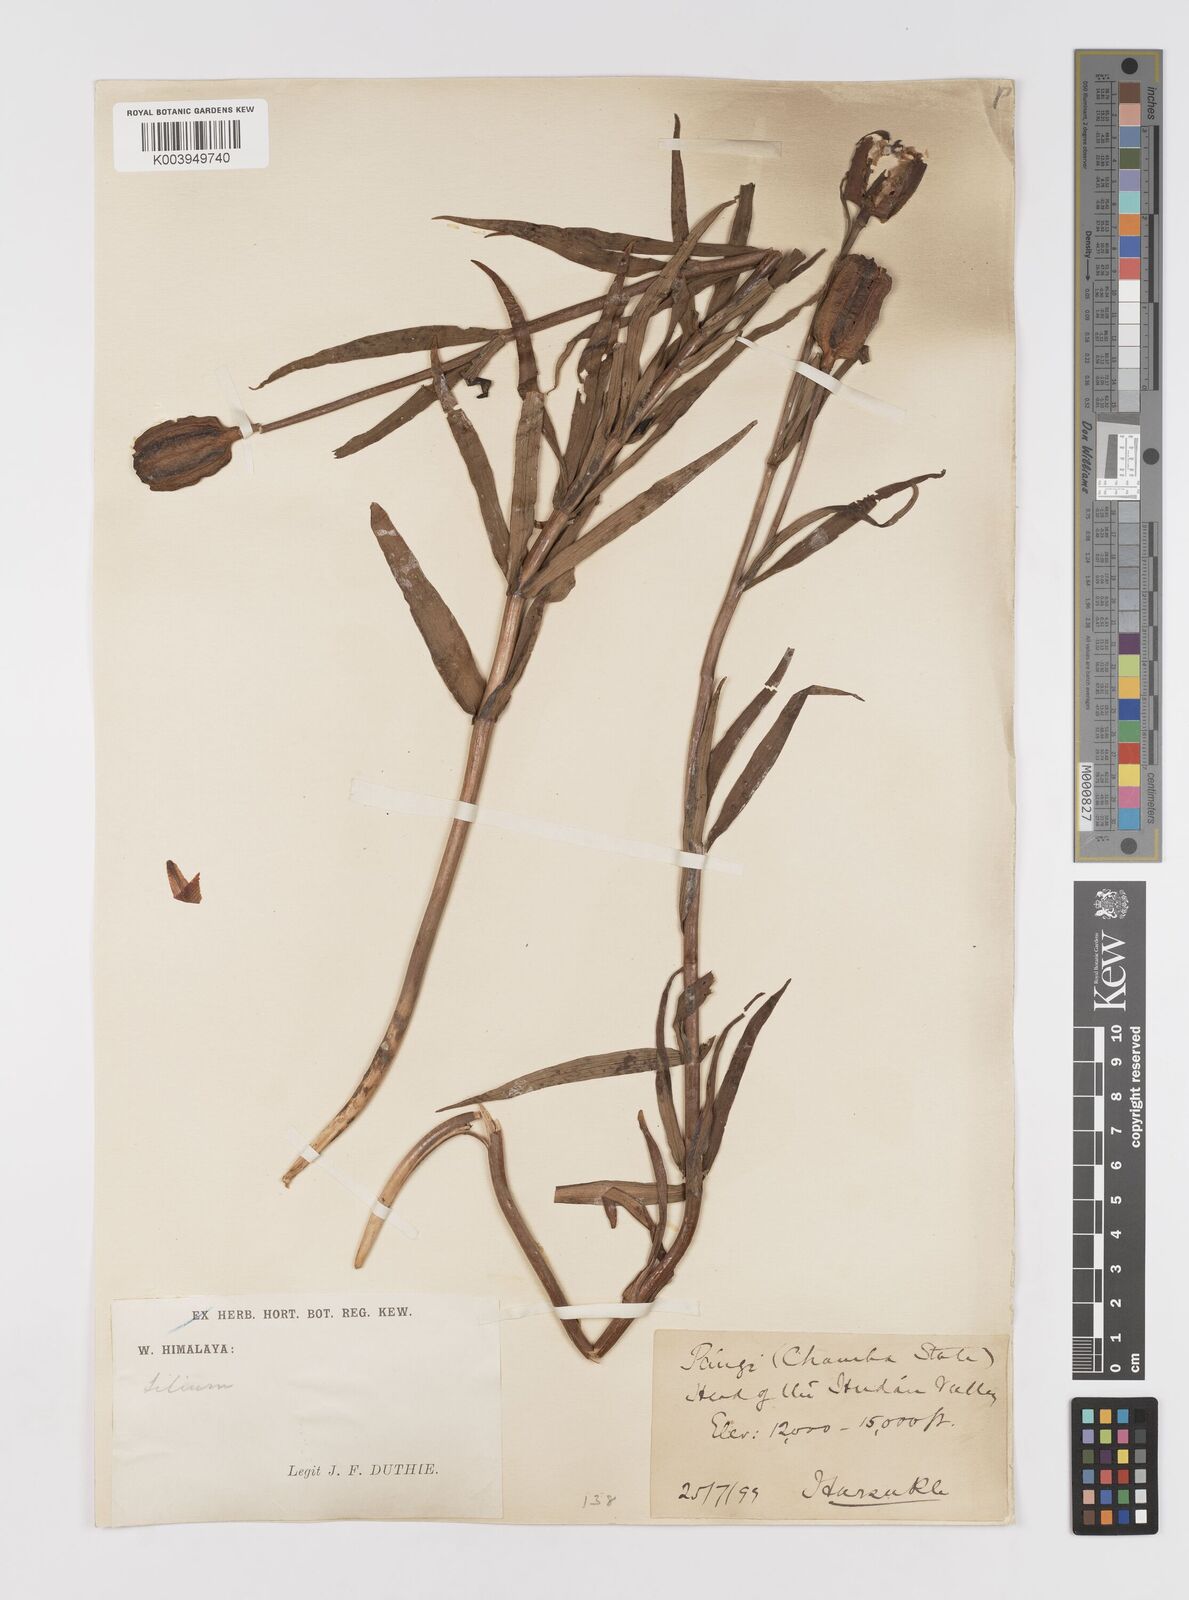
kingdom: Plantae
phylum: Tracheophyta
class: Liliopsida
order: Liliales
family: Liliaceae
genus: Lilium
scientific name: Lilium polyphyllum
